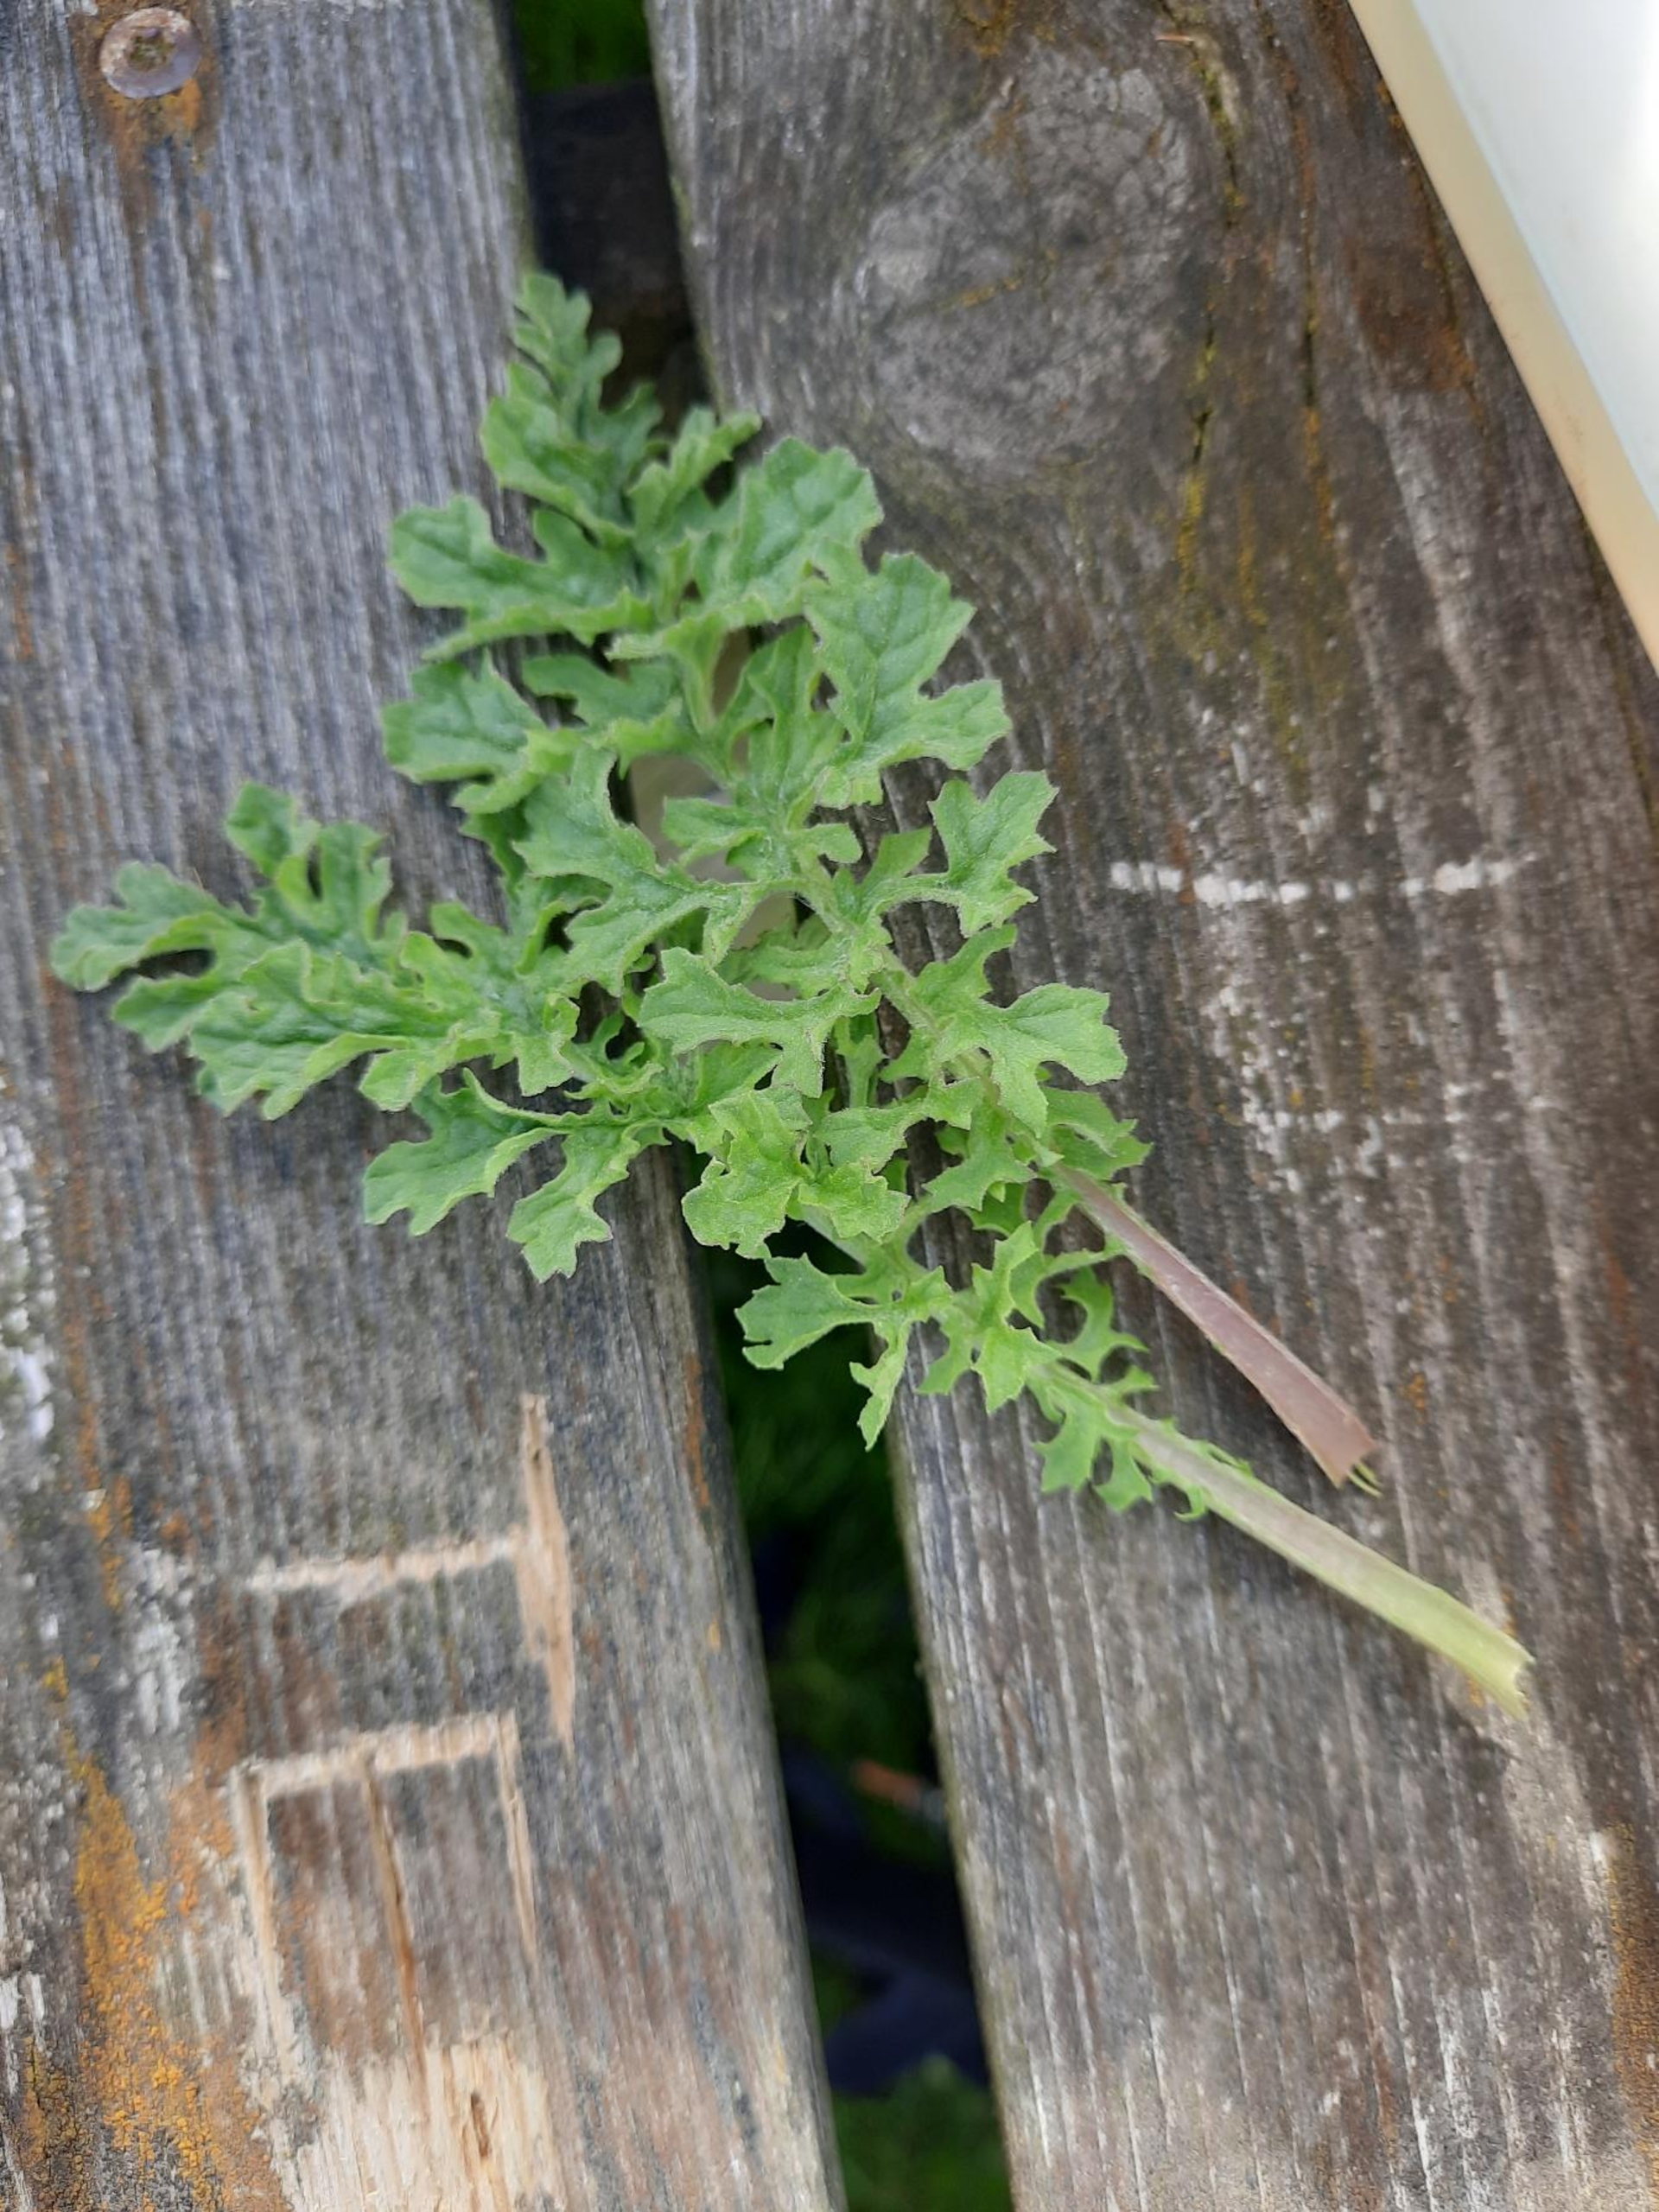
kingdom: Plantae
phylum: Tracheophyta
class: Magnoliopsida
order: Asterales
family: Asteraceae
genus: Jacobaea
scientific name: Jacobaea vulgaris
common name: Eng-brandbæger
